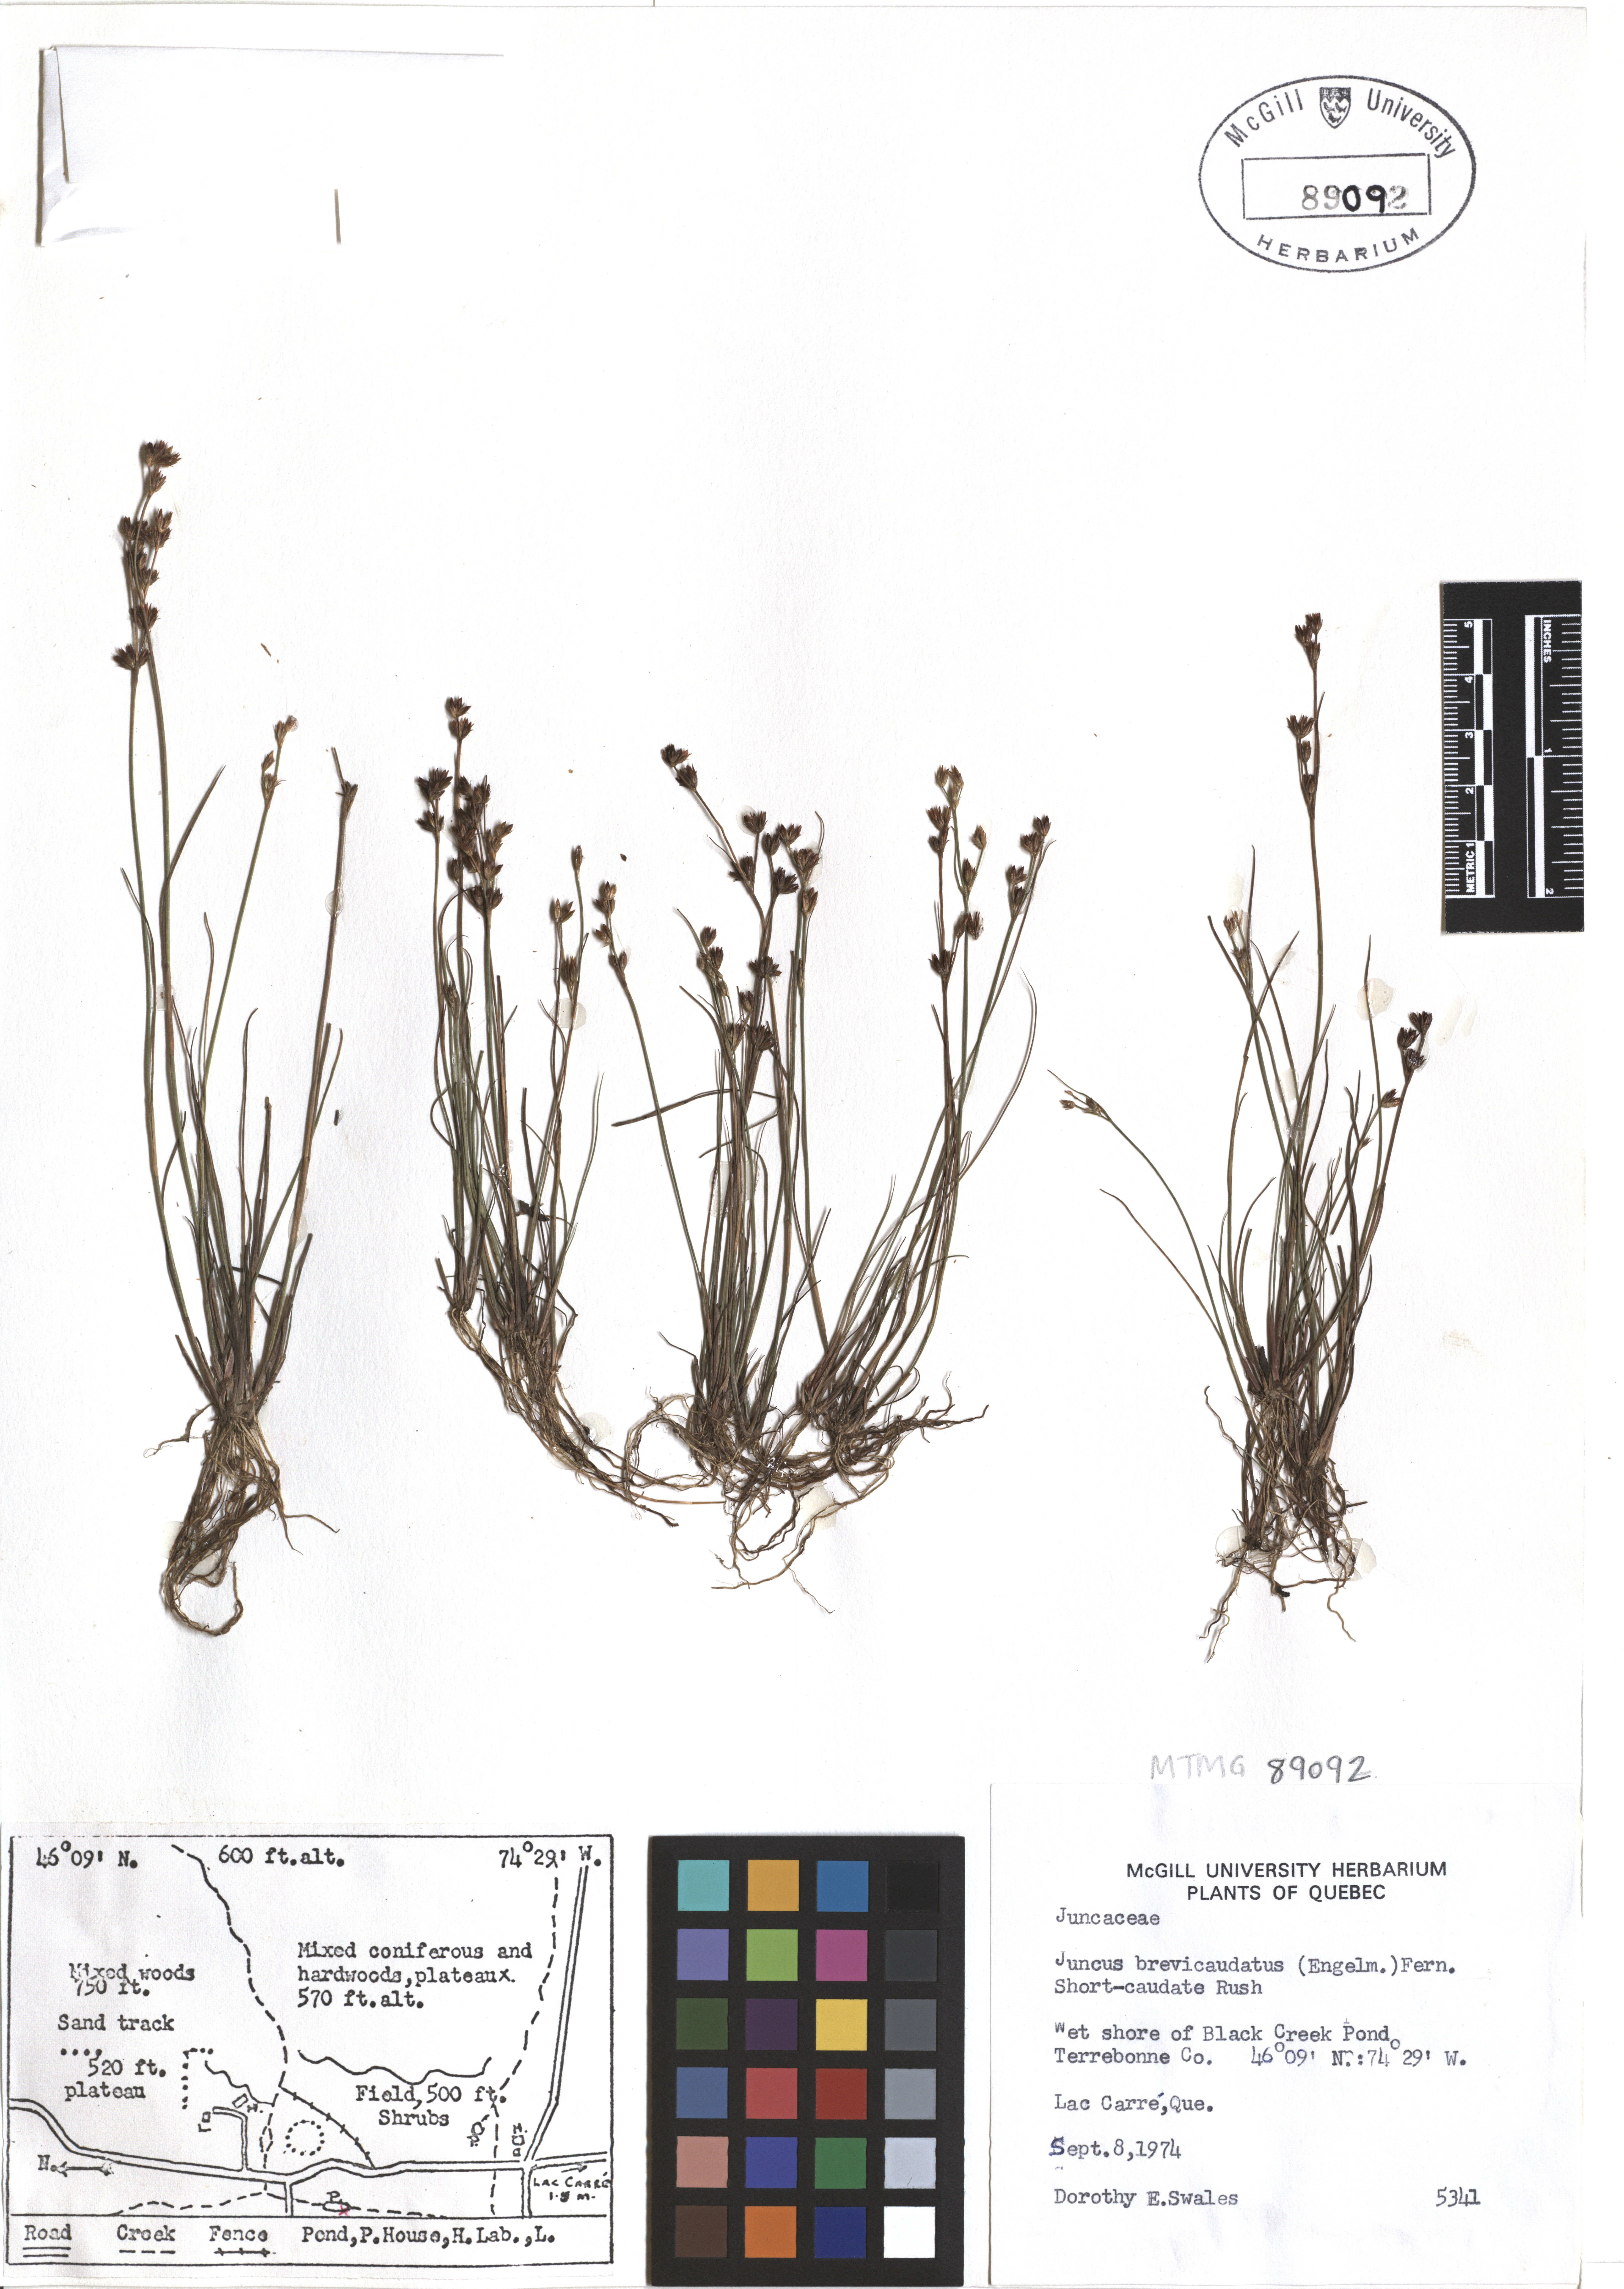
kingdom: Plantae
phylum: Tracheophyta
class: Liliopsida
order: Poales
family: Juncaceae
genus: Juncus
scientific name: Juncus brevicaudatus
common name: Narrow-panicle rush
